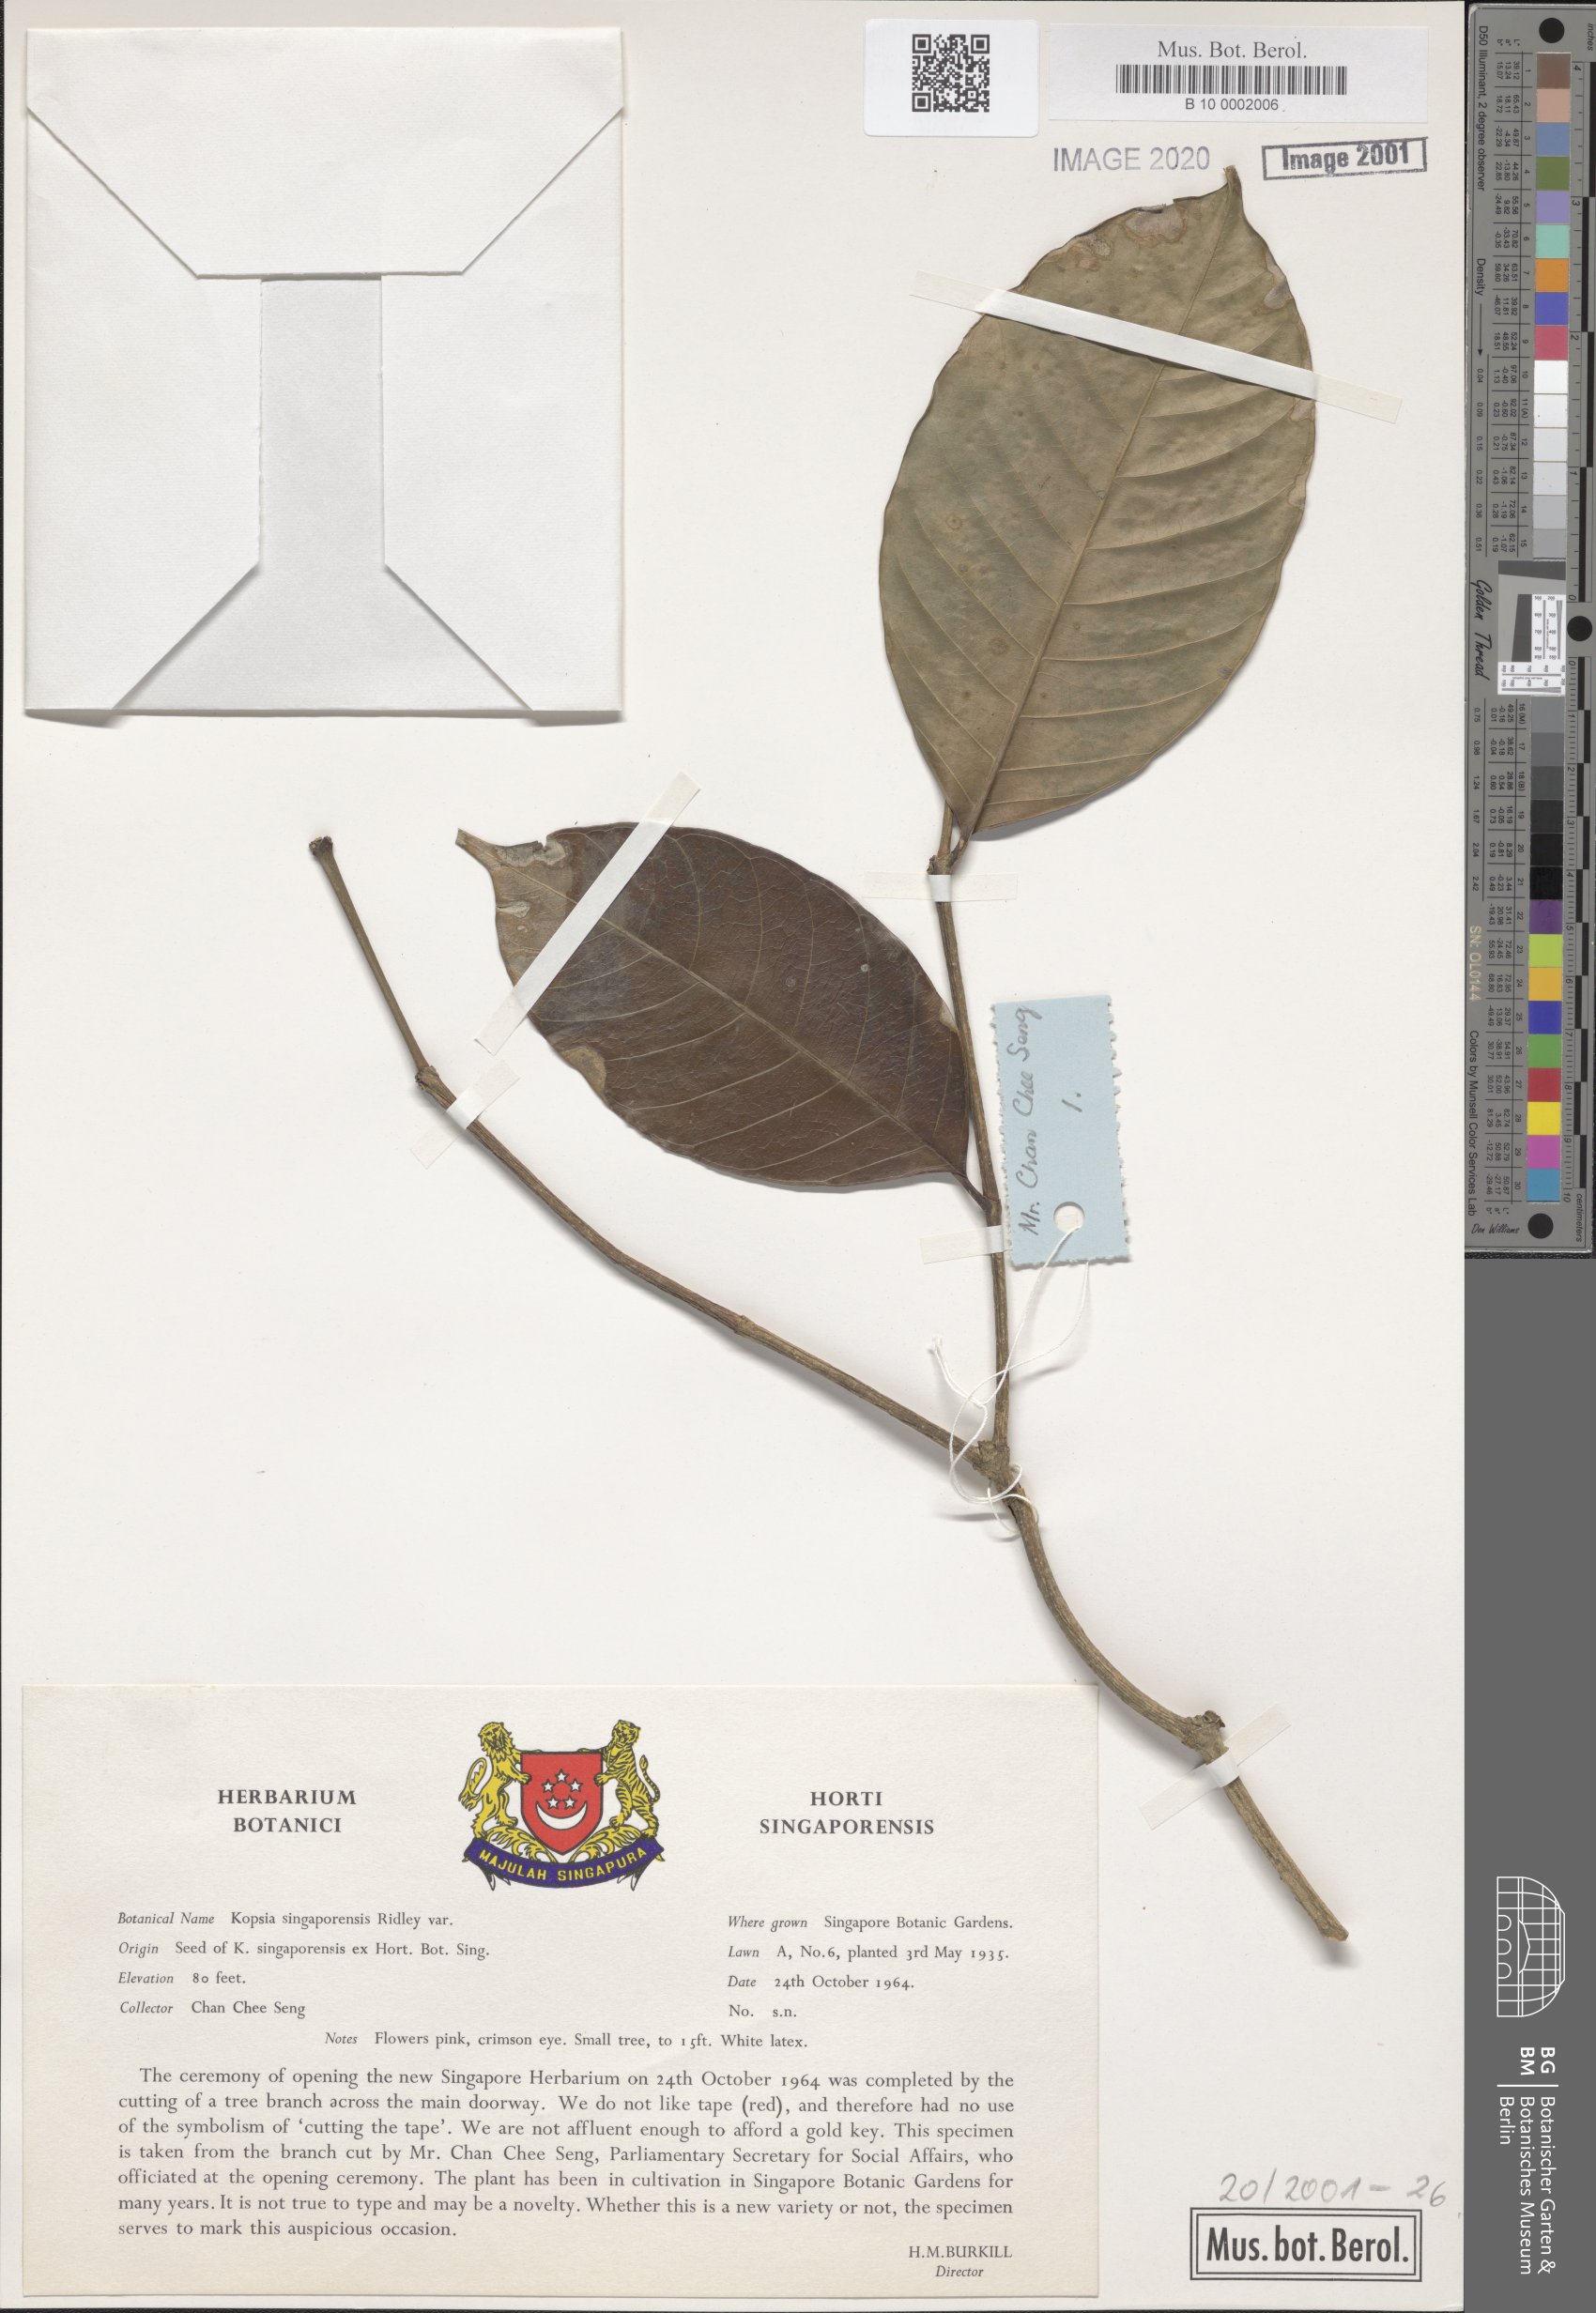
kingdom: Plantae
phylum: Tracheophyta
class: Magnoliopsida
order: Gentianales
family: Apocynaceae
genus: Kopsia
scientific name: Kopsia singapurensis
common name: White kopsia
